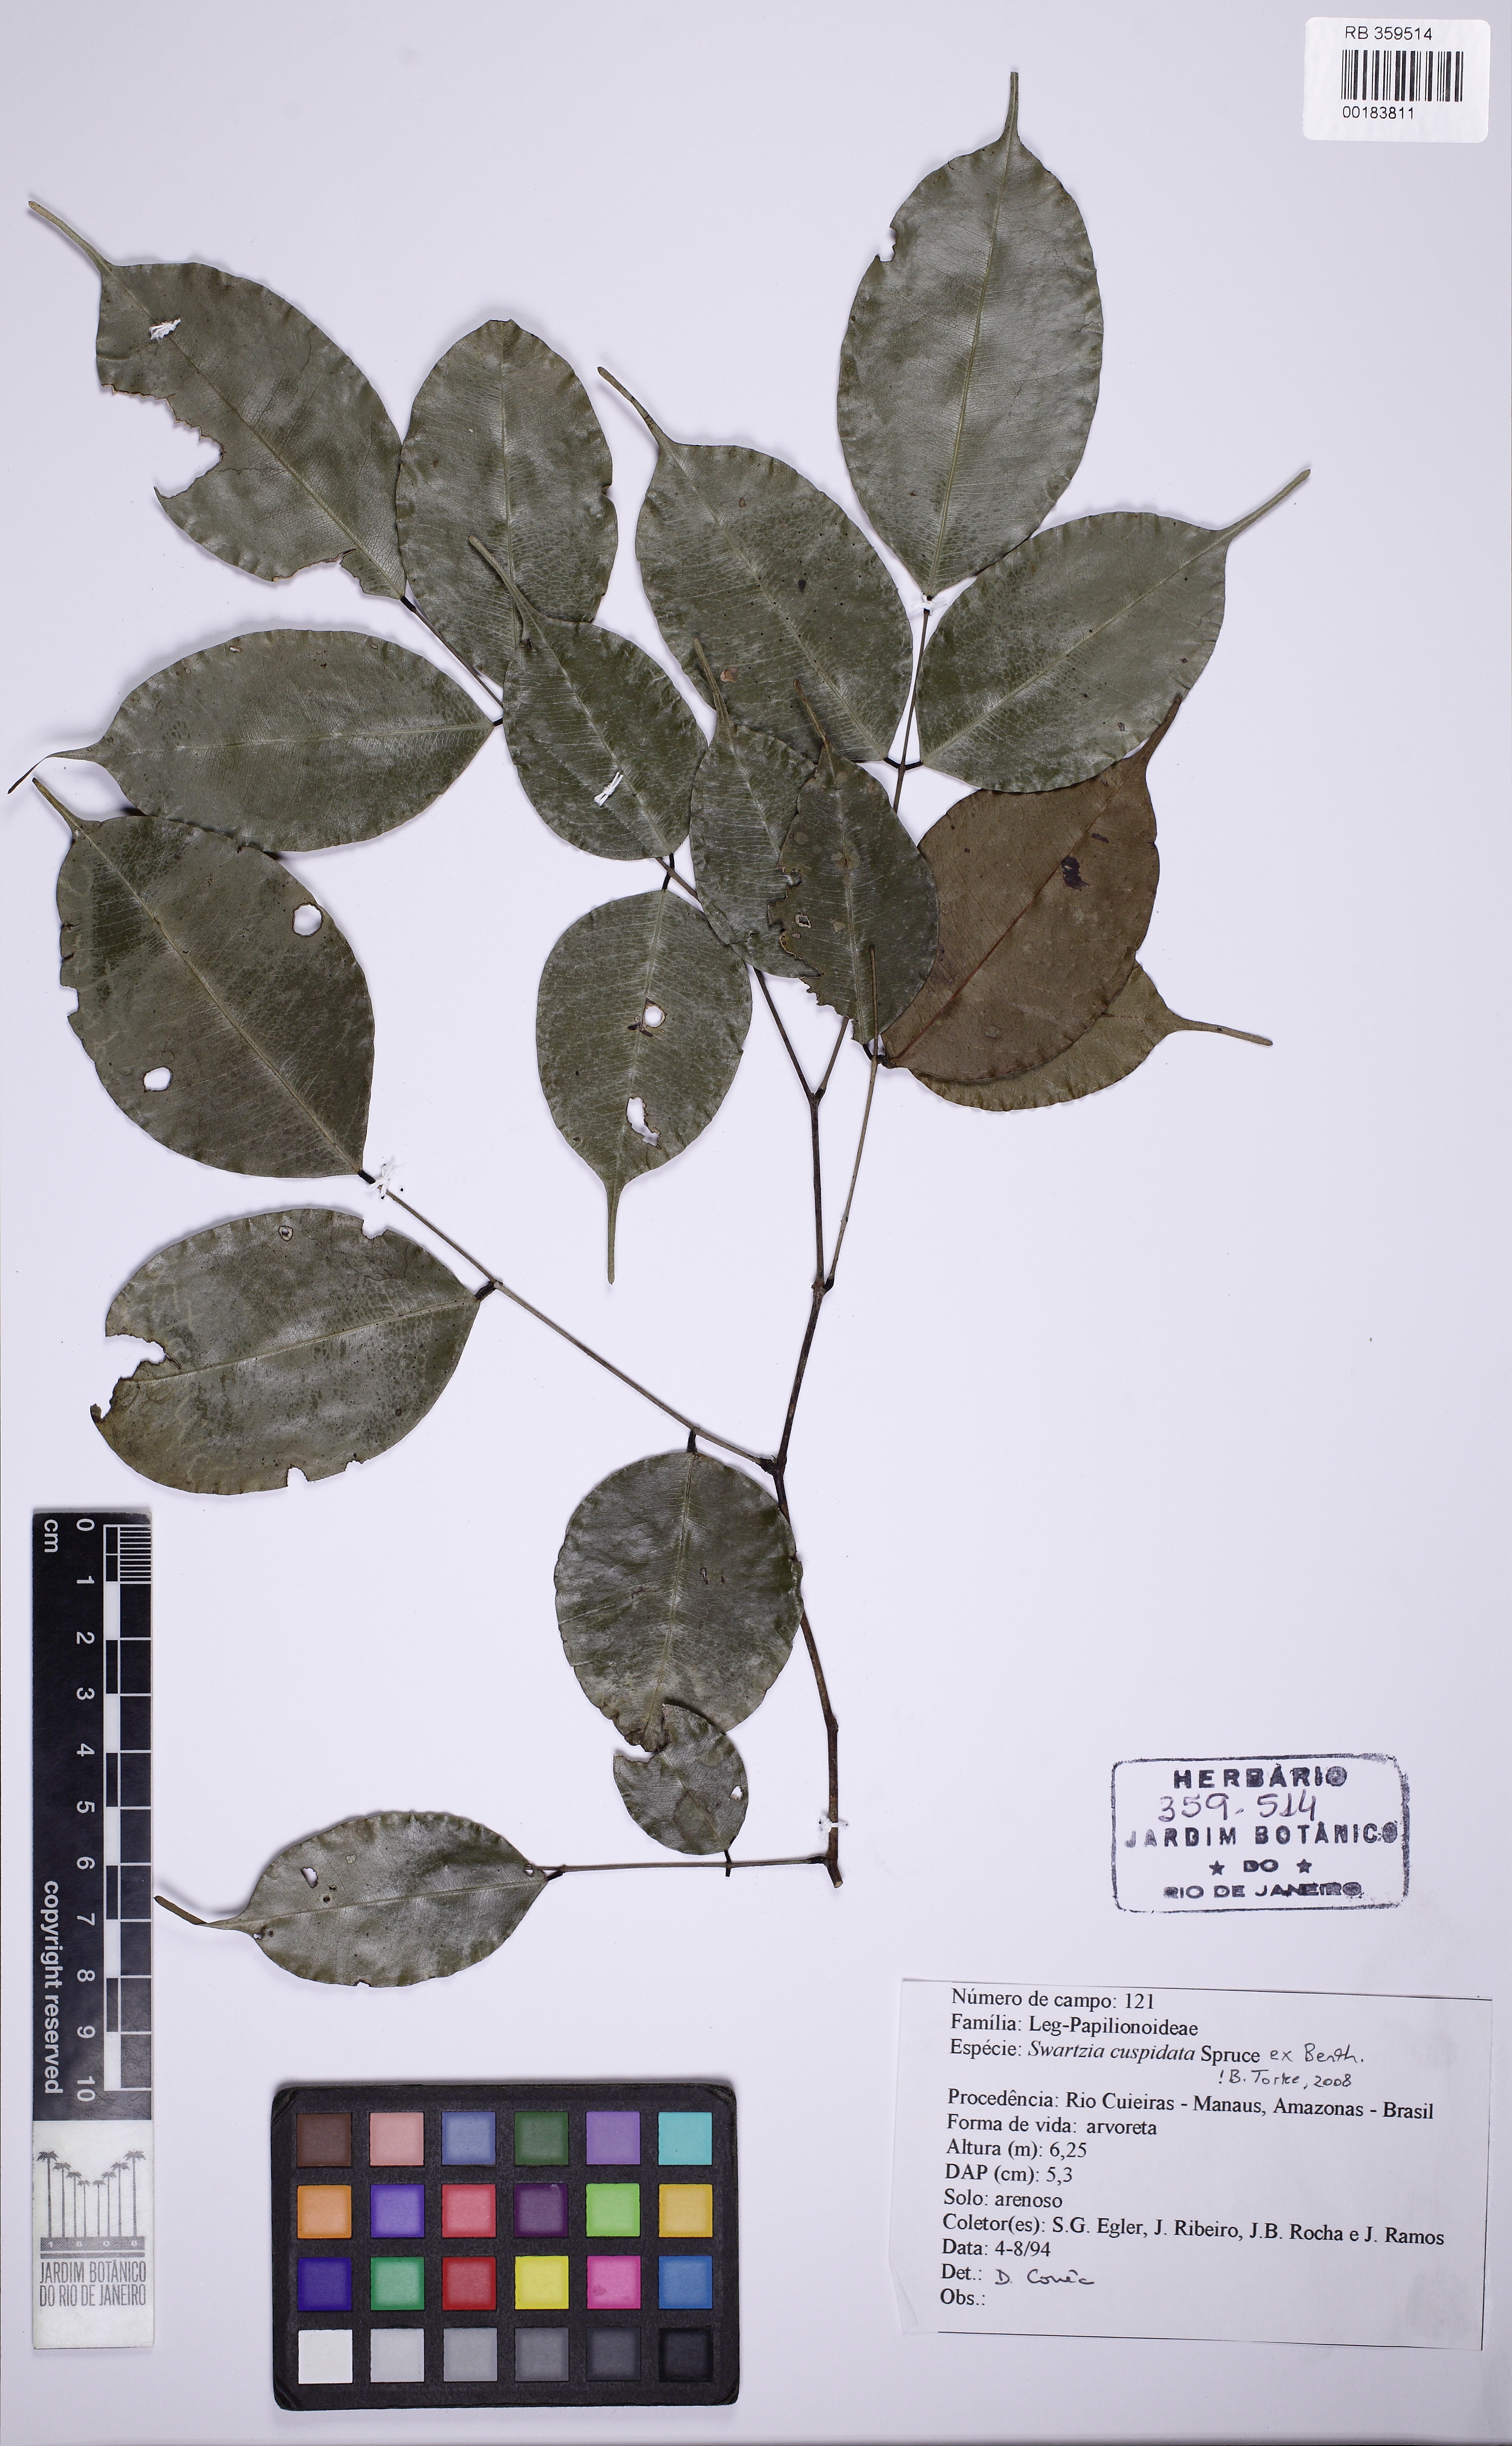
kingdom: Plantae
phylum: Tracheophyta
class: Magnoliopsida
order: Fabales
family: Fabaceae
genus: Swartzia
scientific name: Swartzia cuspidata
